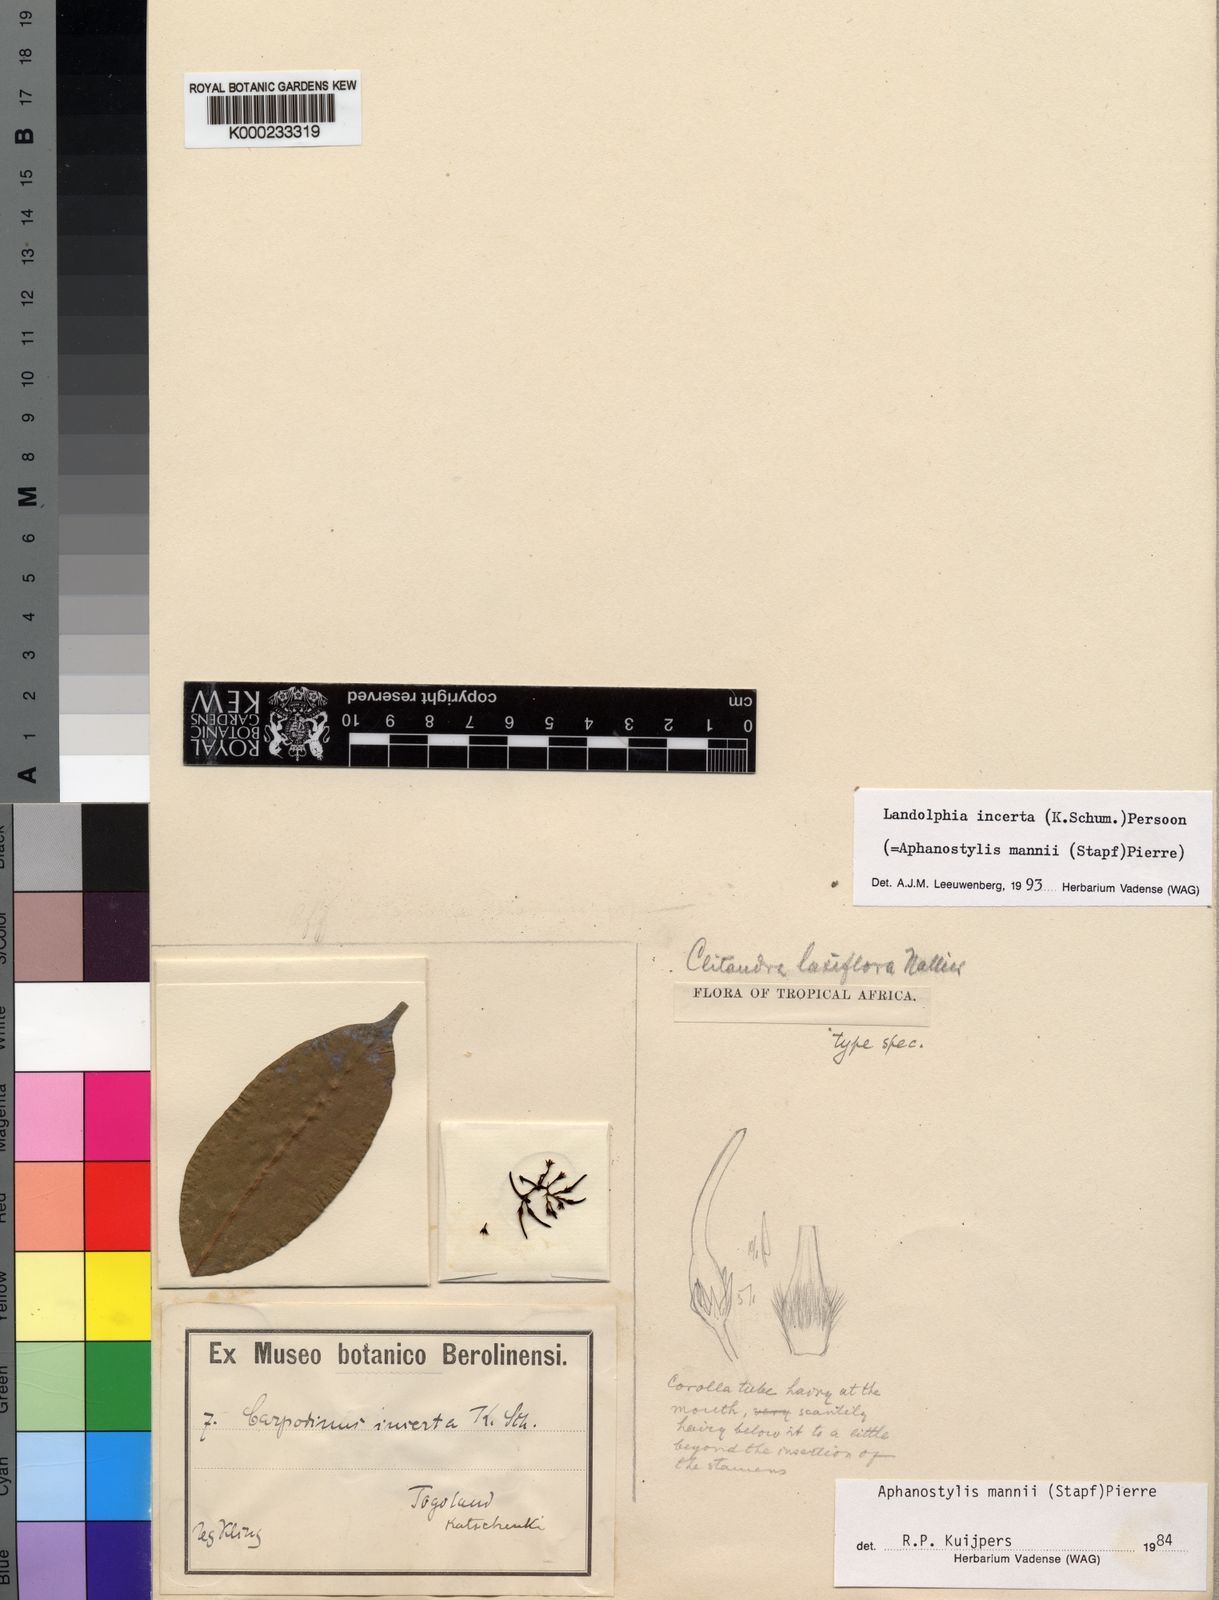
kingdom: Plantae
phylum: Tracheophyta
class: Magnoliopsida
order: Gentianales
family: Apocynaceae
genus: Landolphia
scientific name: Landolphia incerta
